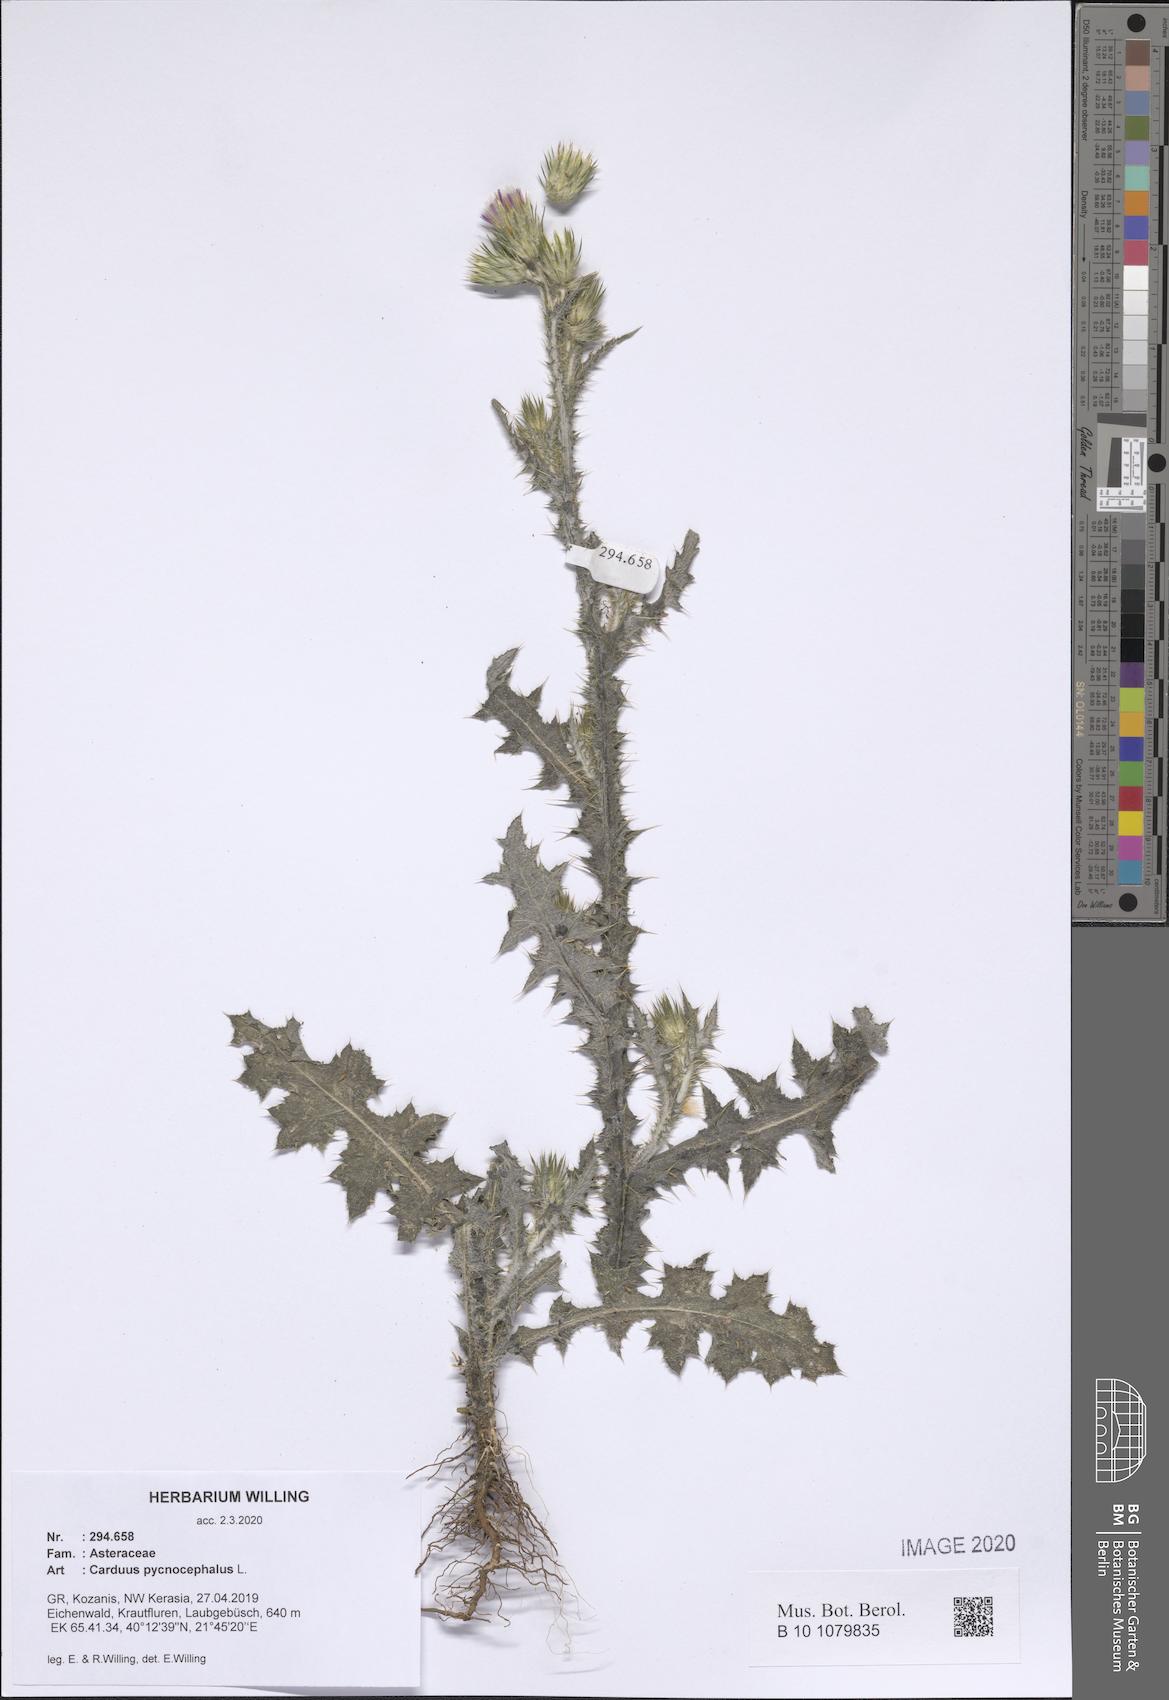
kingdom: Plantae
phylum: Tracheophyta
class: Magnoliopsida
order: Asterales
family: Asteraceae
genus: Carduus
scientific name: Carduus pycnocephalus
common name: Plymouth thistle
